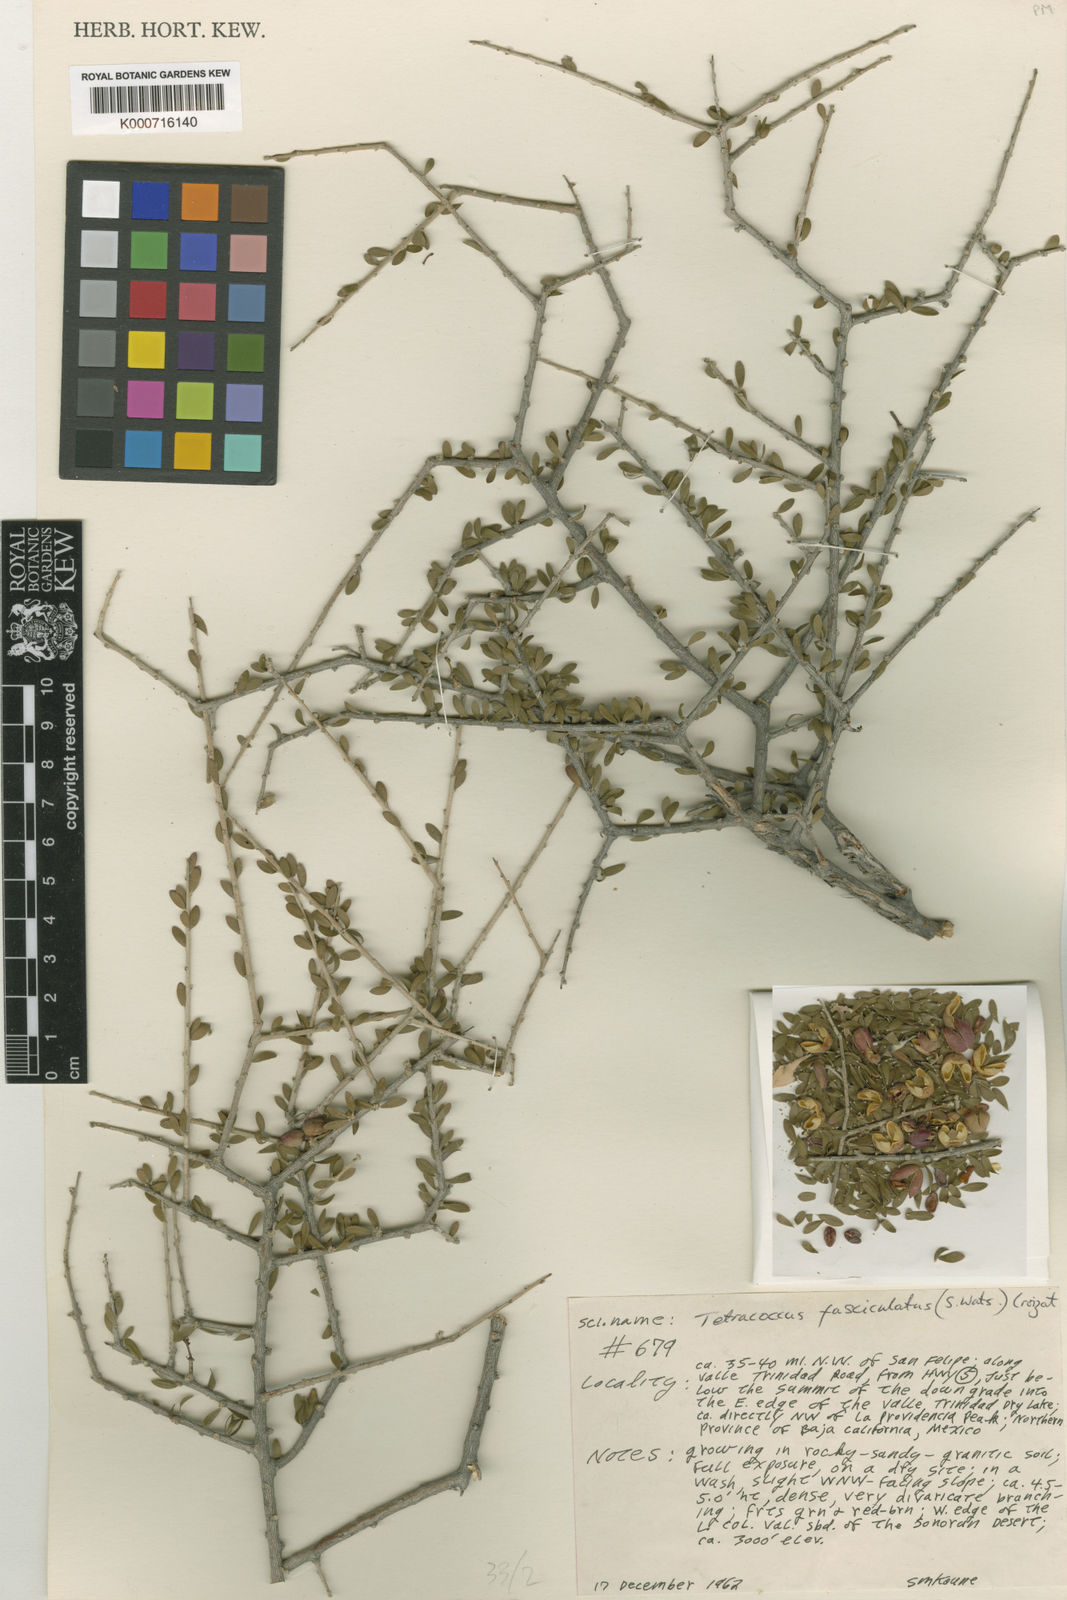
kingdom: Plantae
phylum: Tracheophyta
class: Magnoliopsida
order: Malpighiales
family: Picrodendraceae
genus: Tetracoccus
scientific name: Tetracoccus fasciculatus
